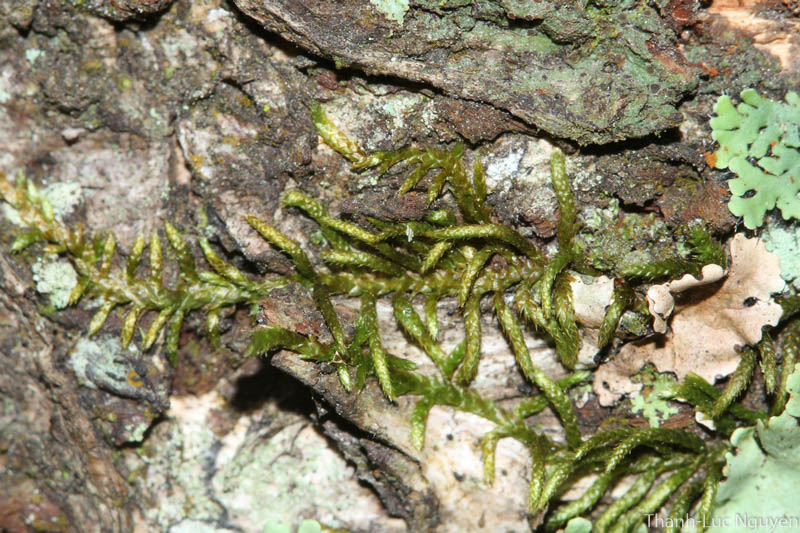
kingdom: Plantae
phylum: Bryophyta
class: Bryopsida
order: Hypnales
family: Entodontaceae
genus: Erythrodontium
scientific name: Erythrodontium julaceum
